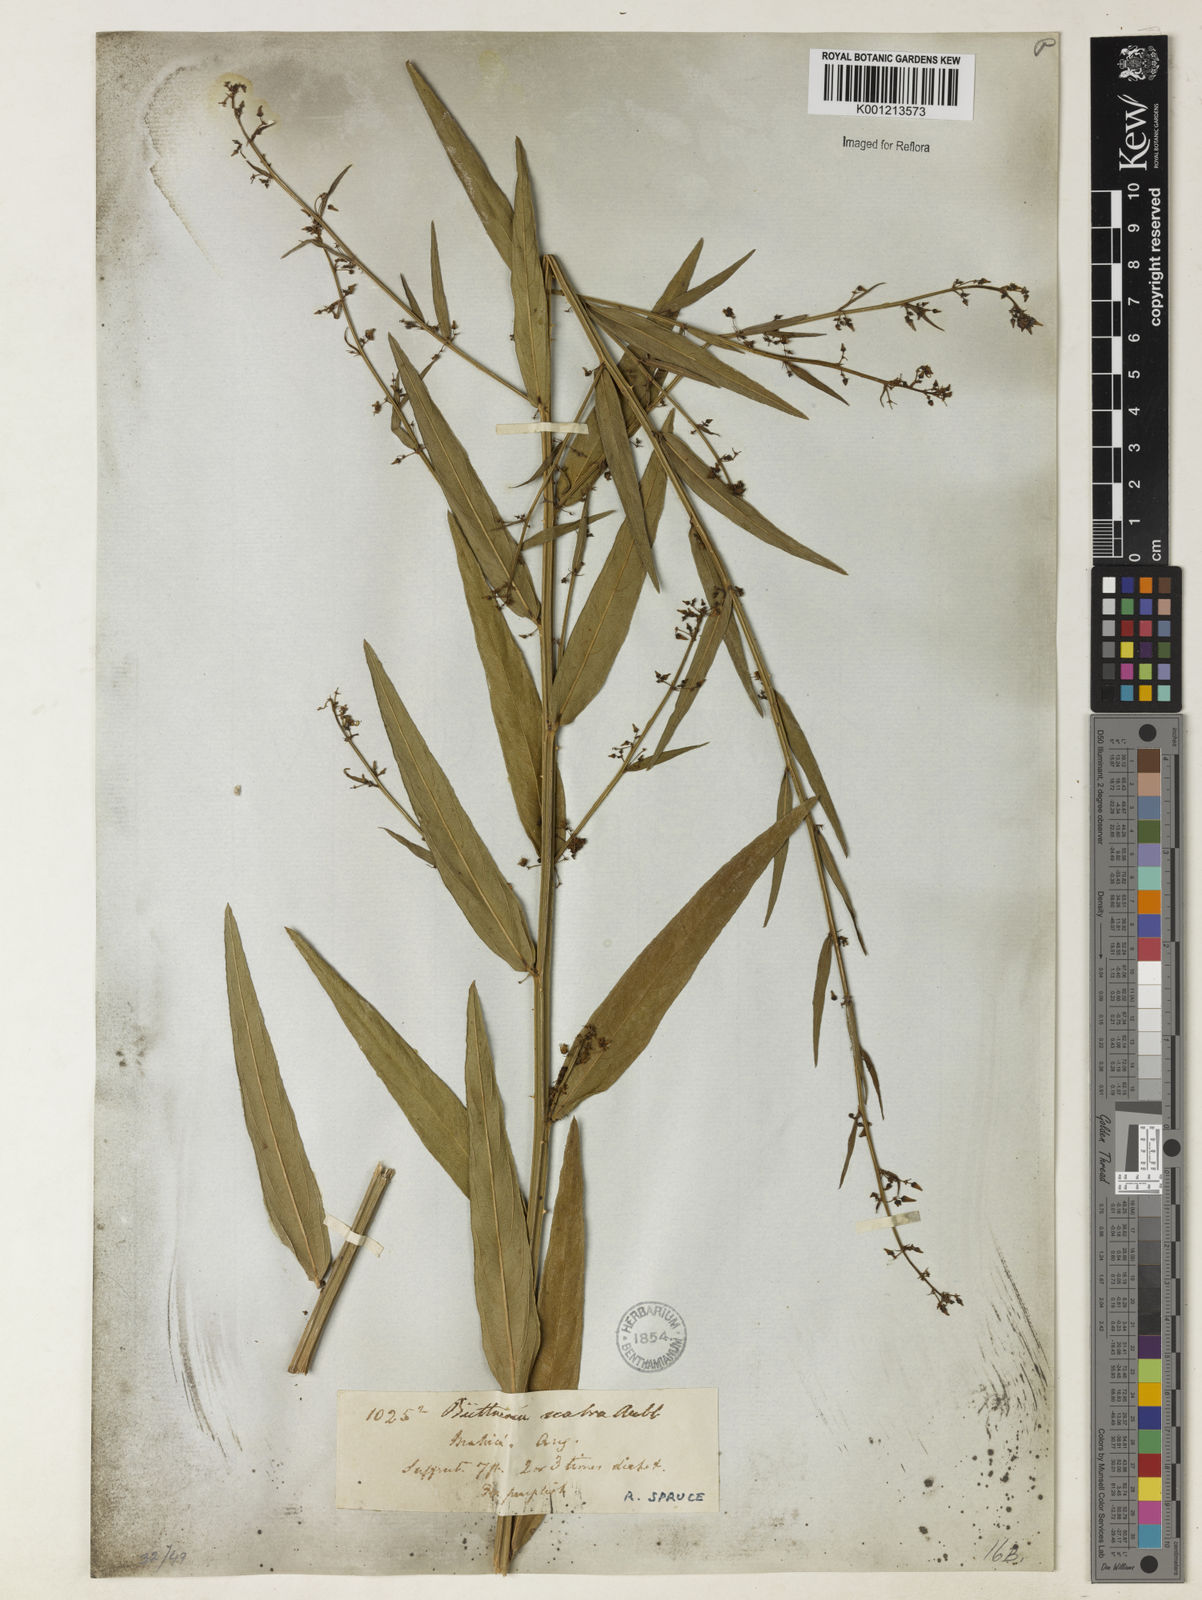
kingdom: Plantae
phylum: Tracheophyta
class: Magnoliopsida
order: Malvales
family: Malvaceae
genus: Byttneria
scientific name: Byttneria
